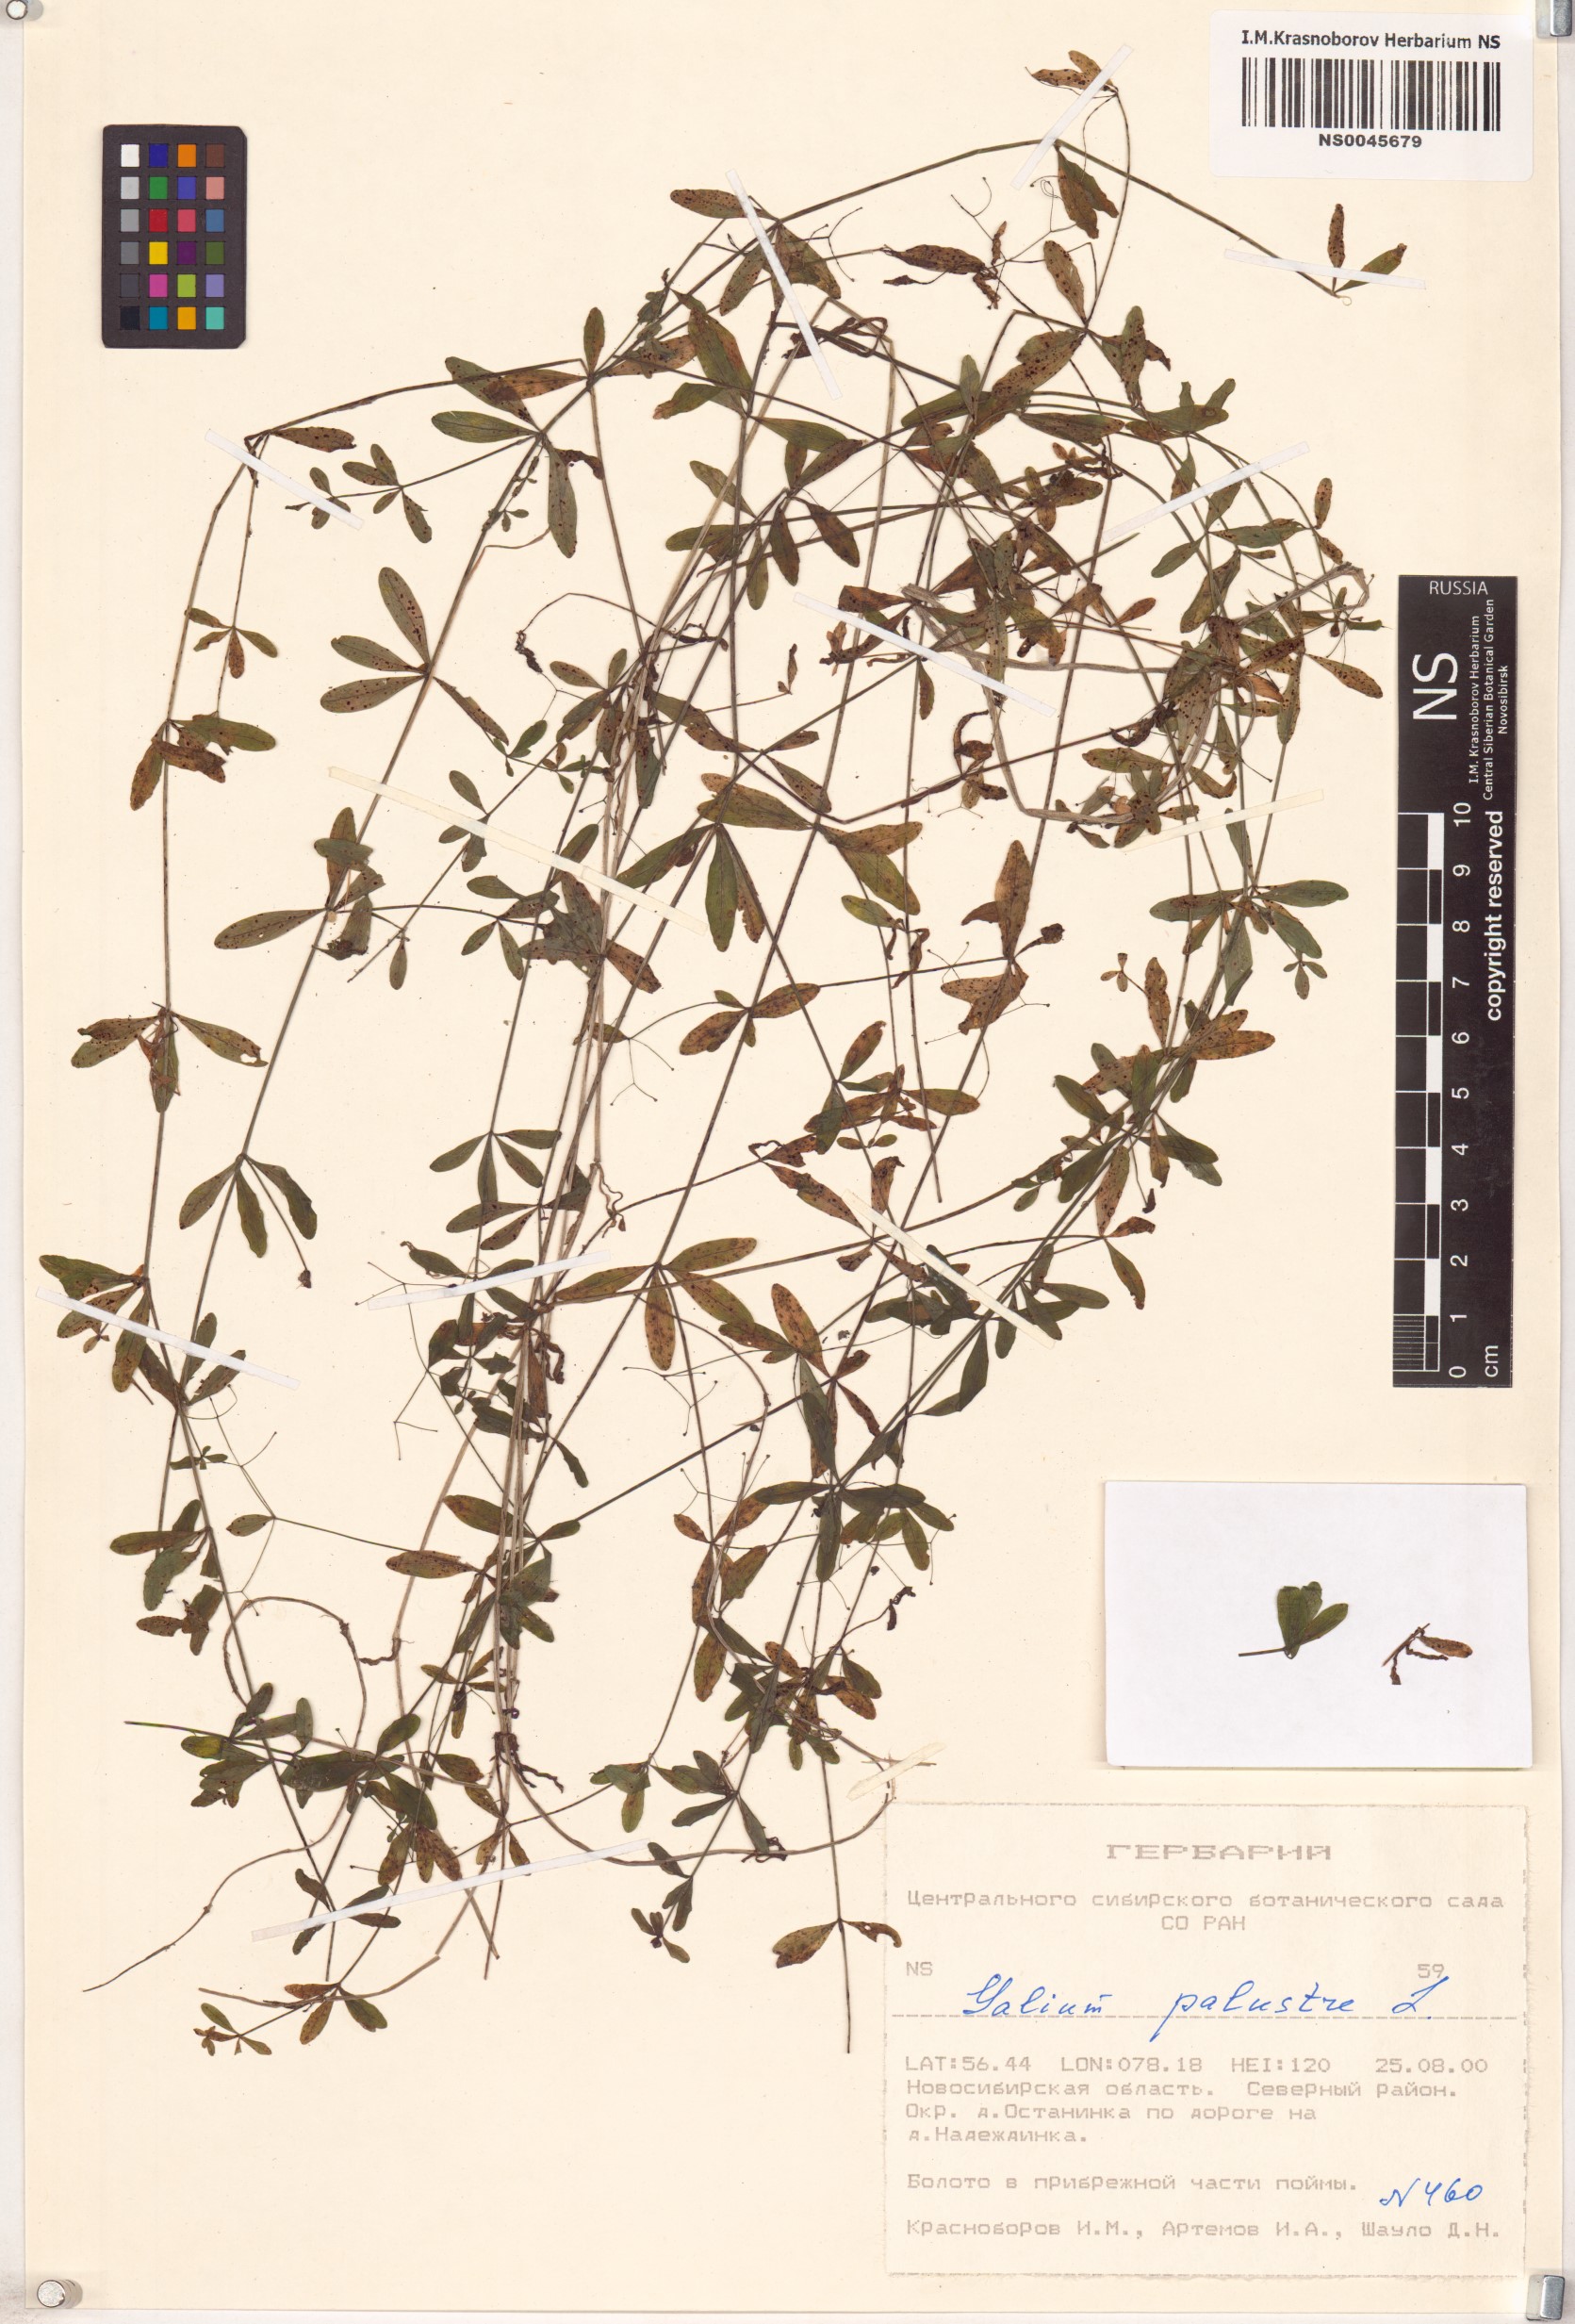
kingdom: Plantae
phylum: Tracheophyta
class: Magnoliopsida
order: Gentianales
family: Rubiaceae
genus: Galium
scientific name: Galium palustre
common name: Common marsh-bedstraw
